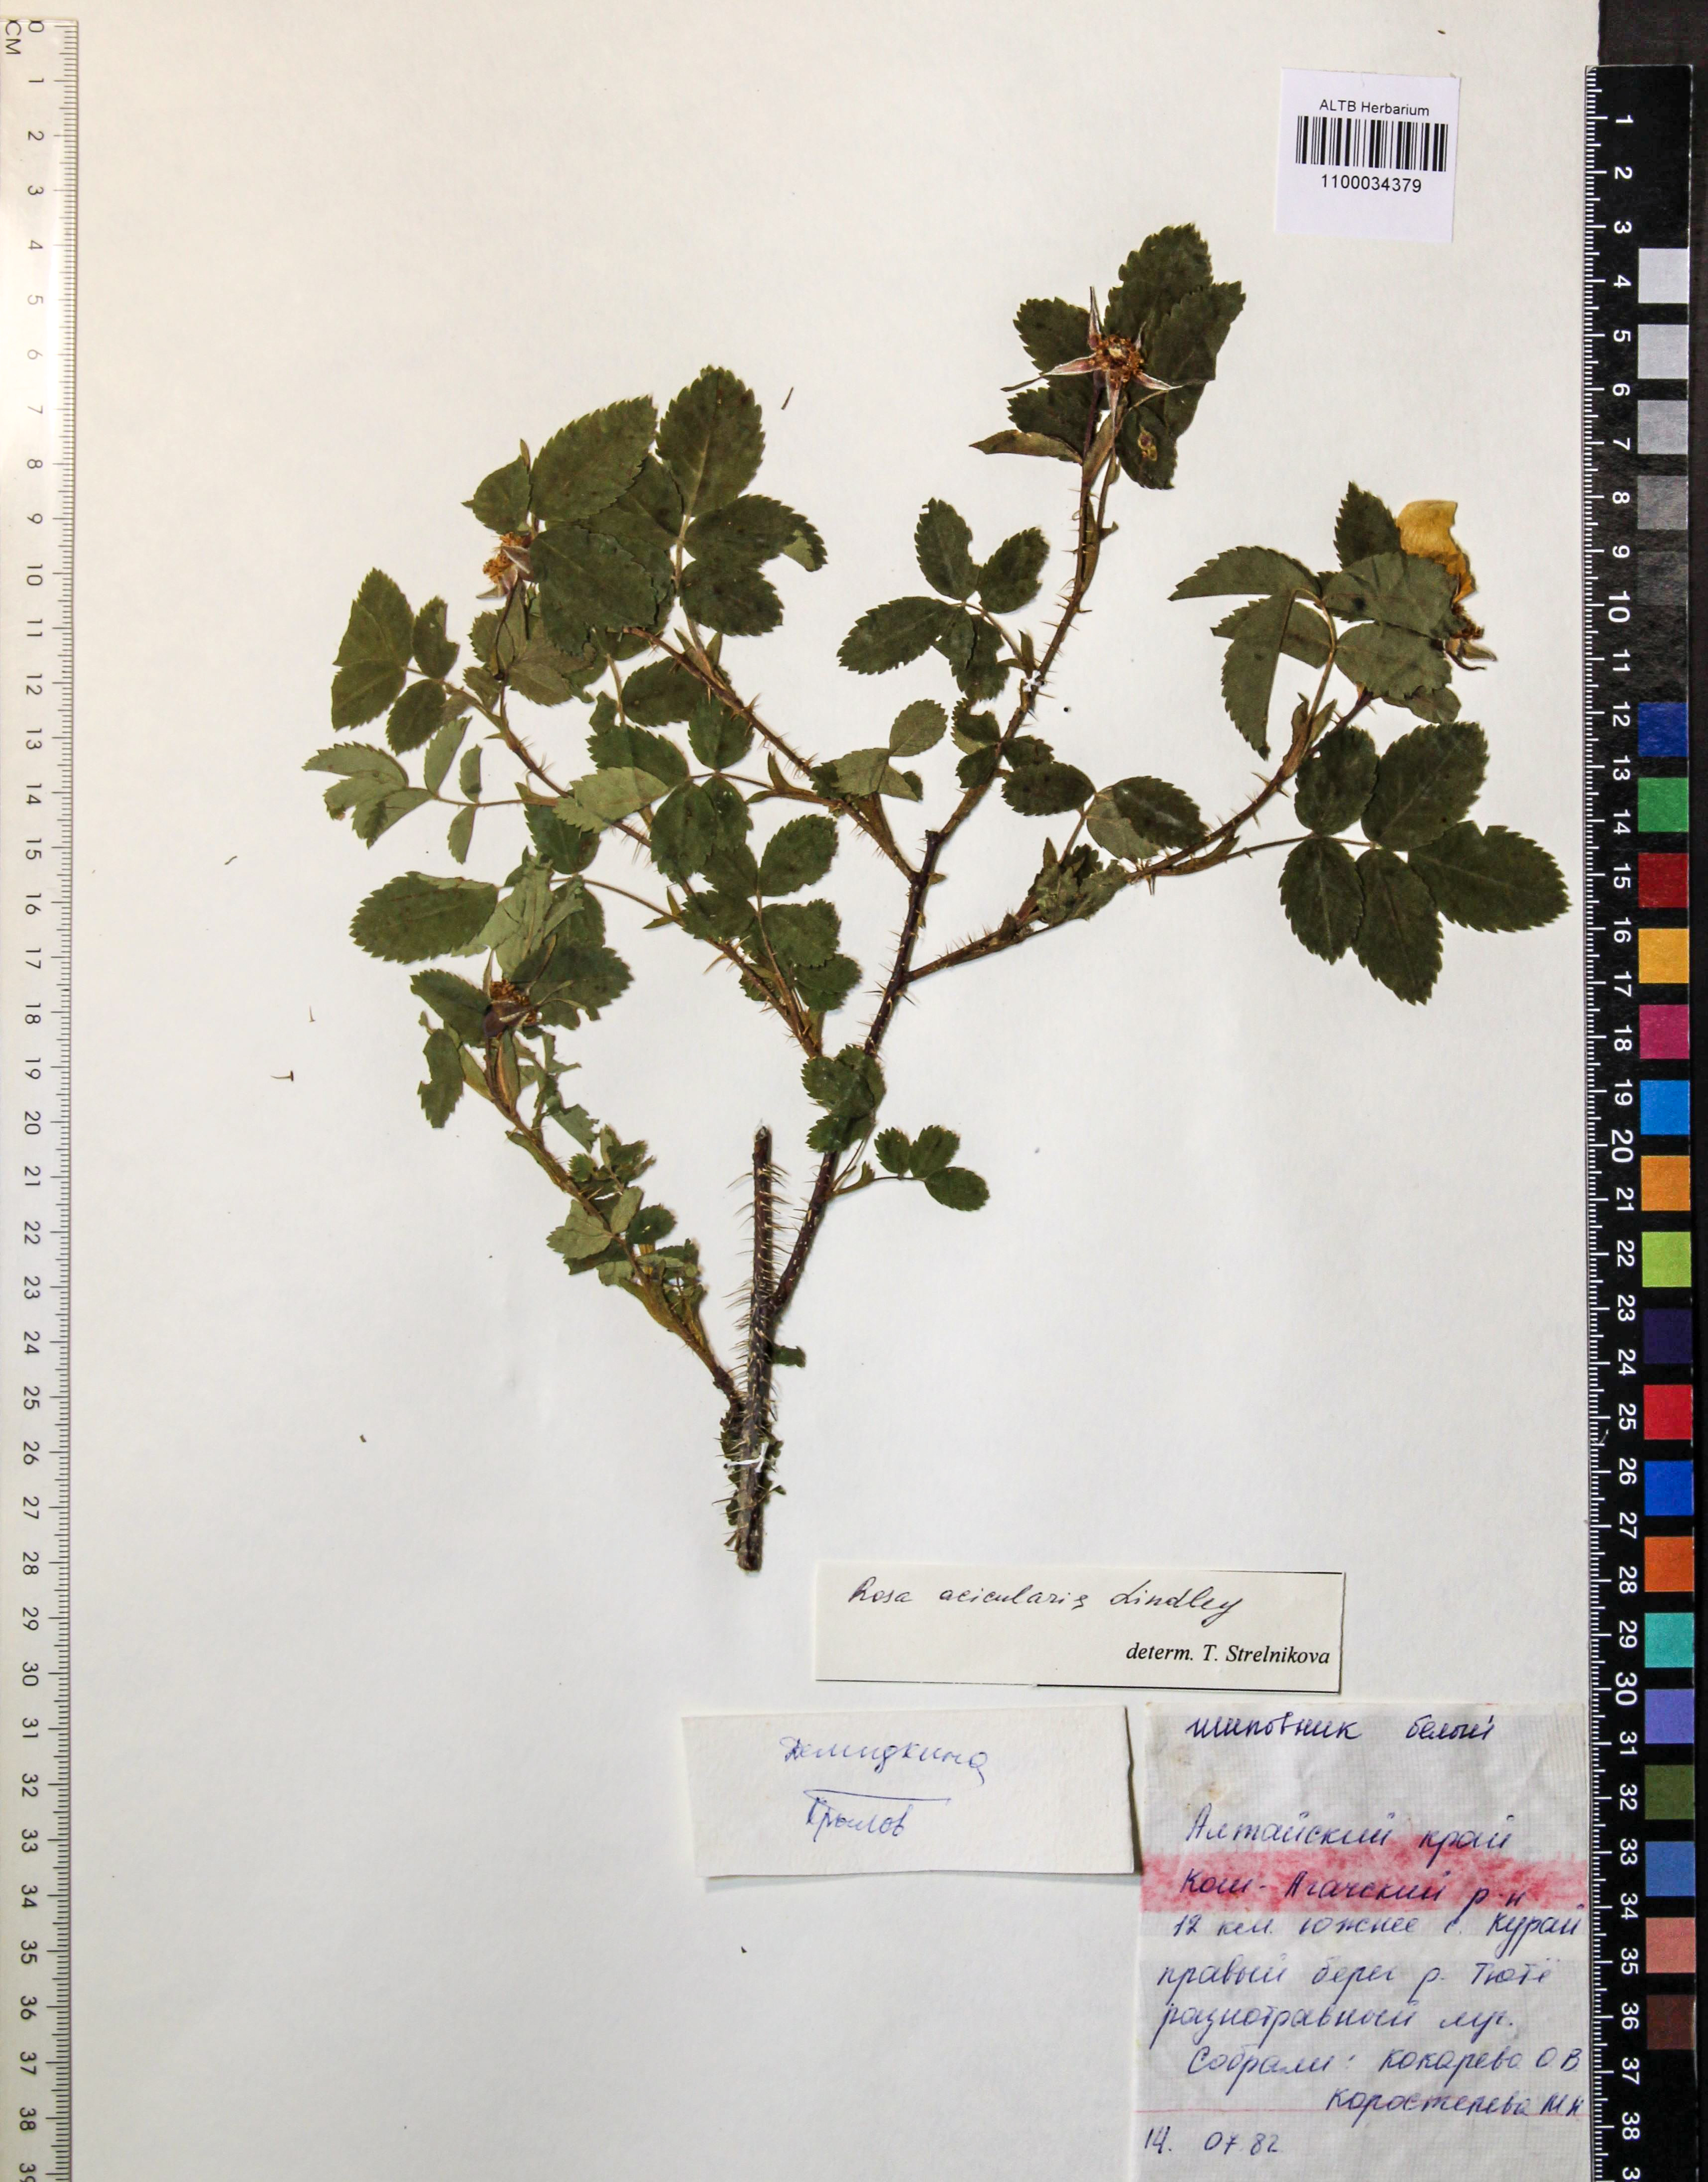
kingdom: Plantae
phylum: Tracheophyta
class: Magnoliopsida
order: Rosales
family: Rosaceae
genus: Rosa
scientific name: Rosa acicularis
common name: Prickly rose
